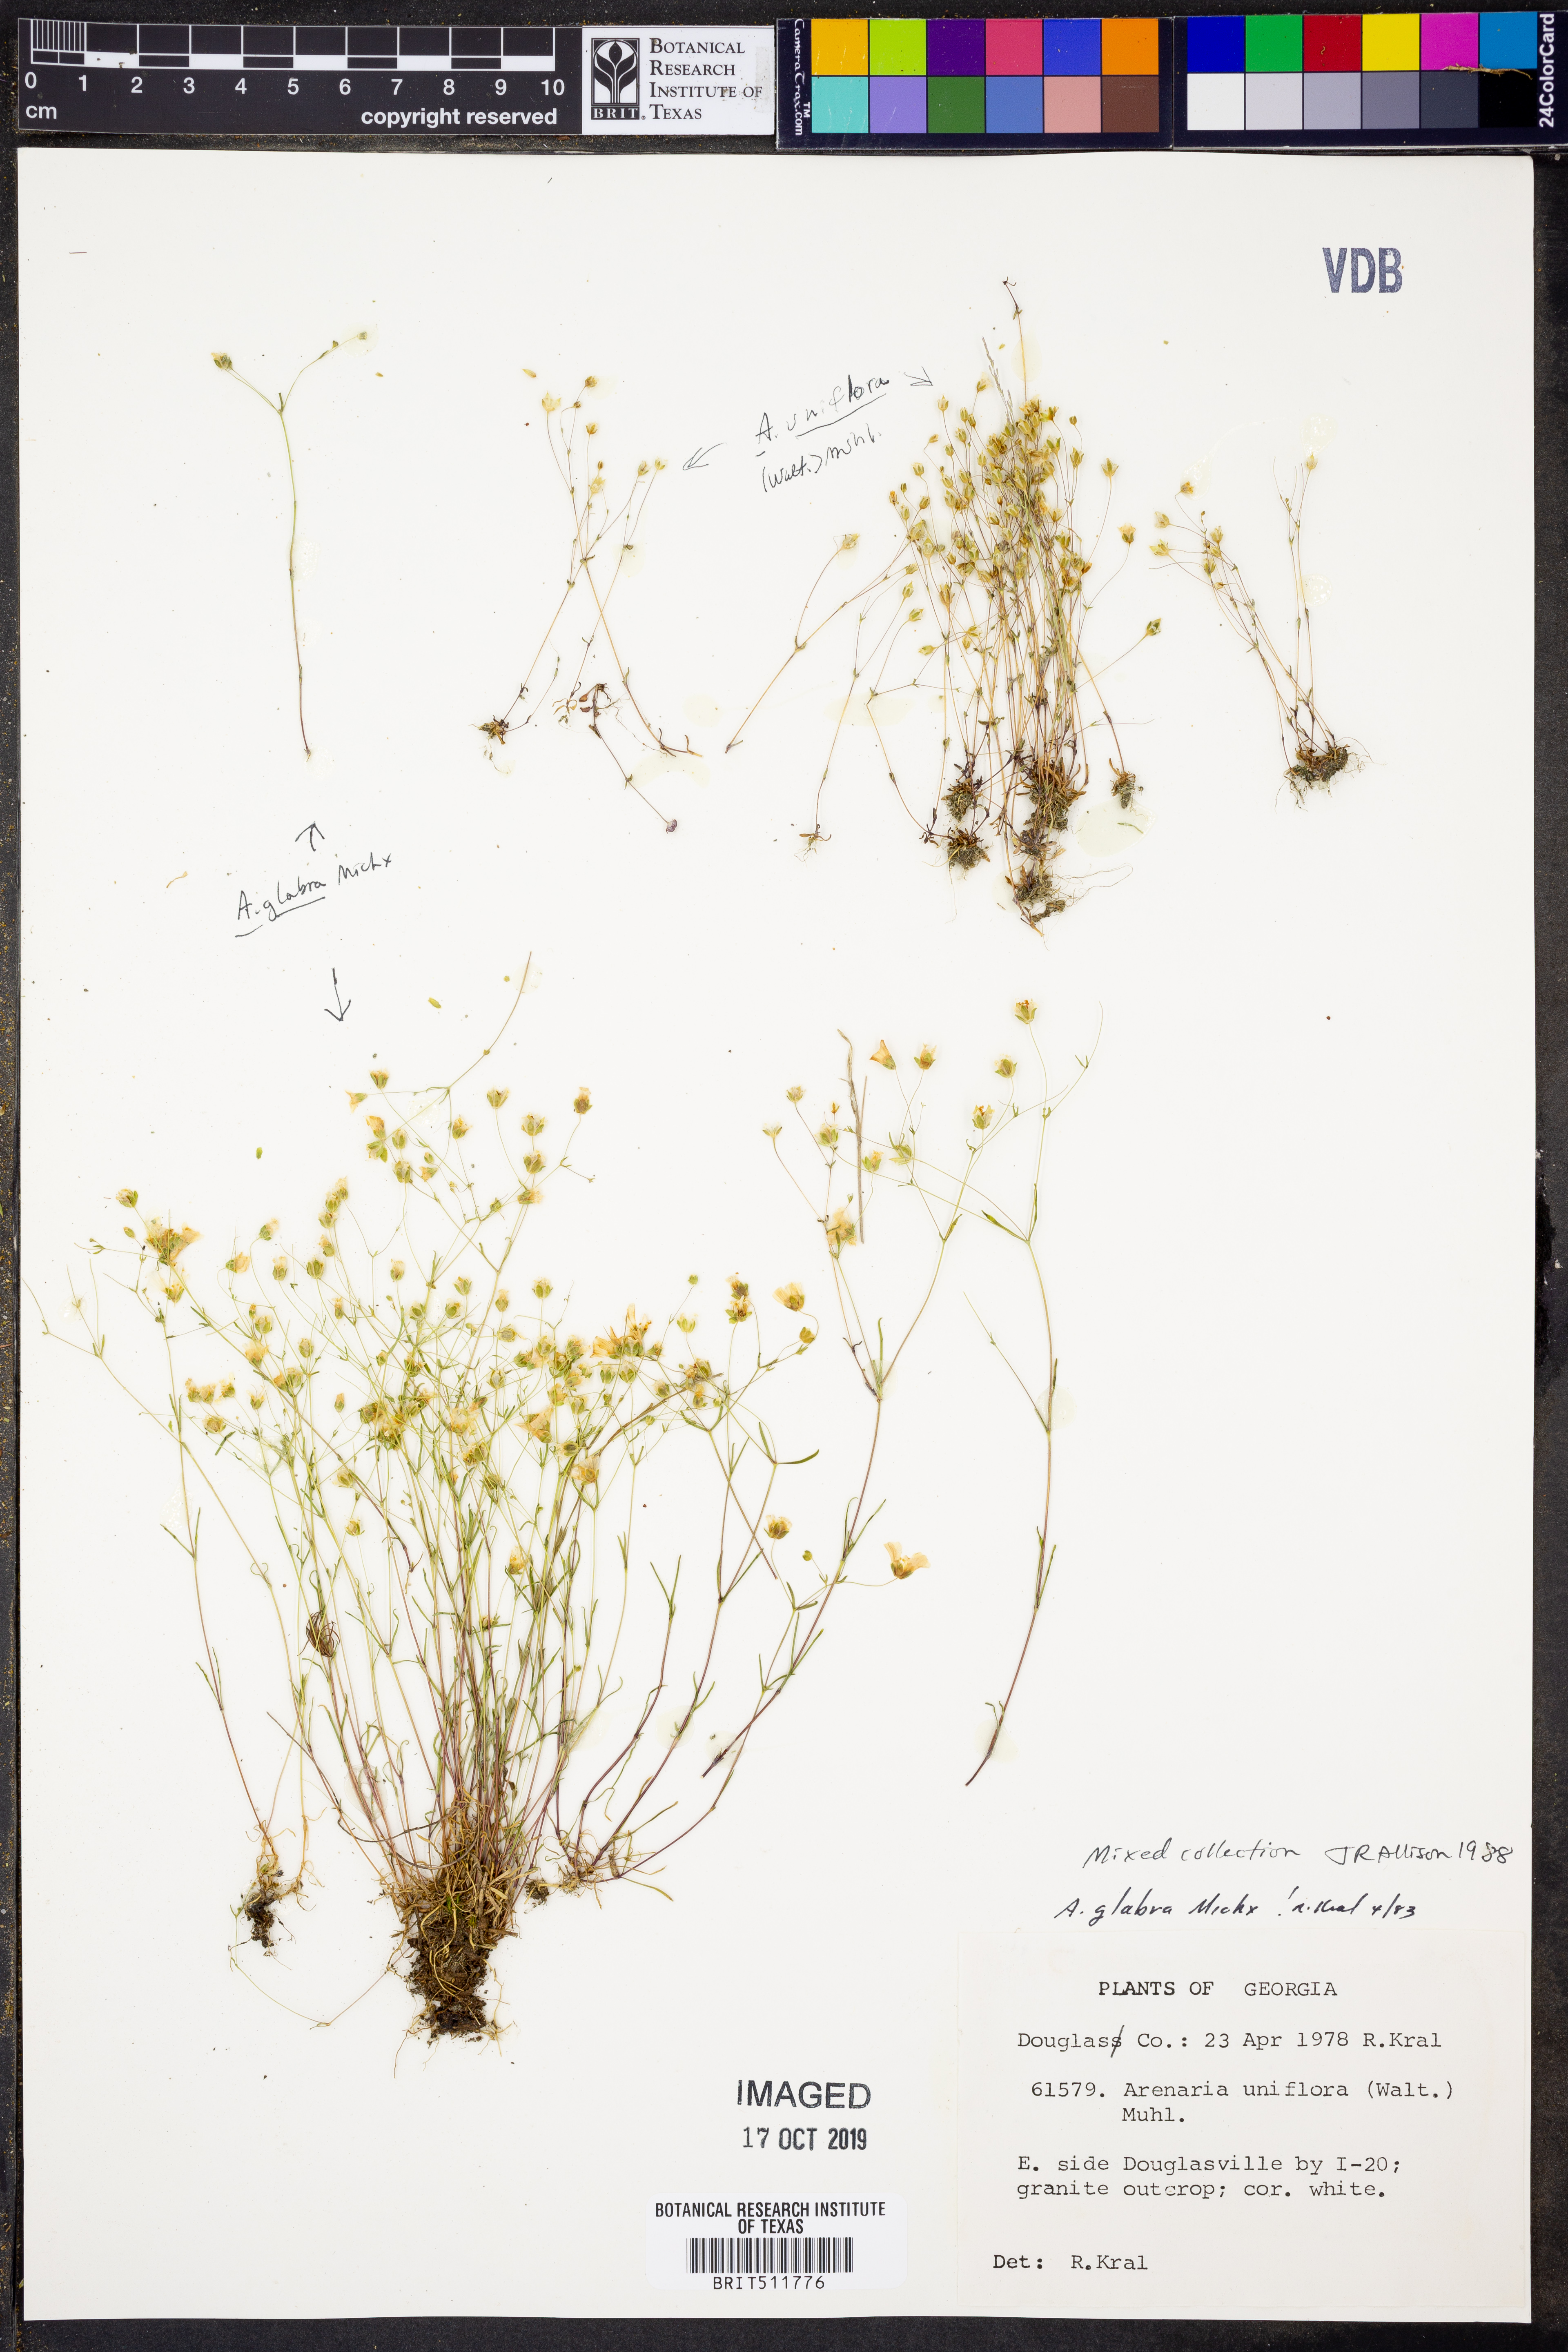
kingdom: Plantae
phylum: Tracheophyta
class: Magnoliopsida
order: Caryophyllales
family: Caryophyllaceae
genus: Geocarpon
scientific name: Geocarpon glabrum
